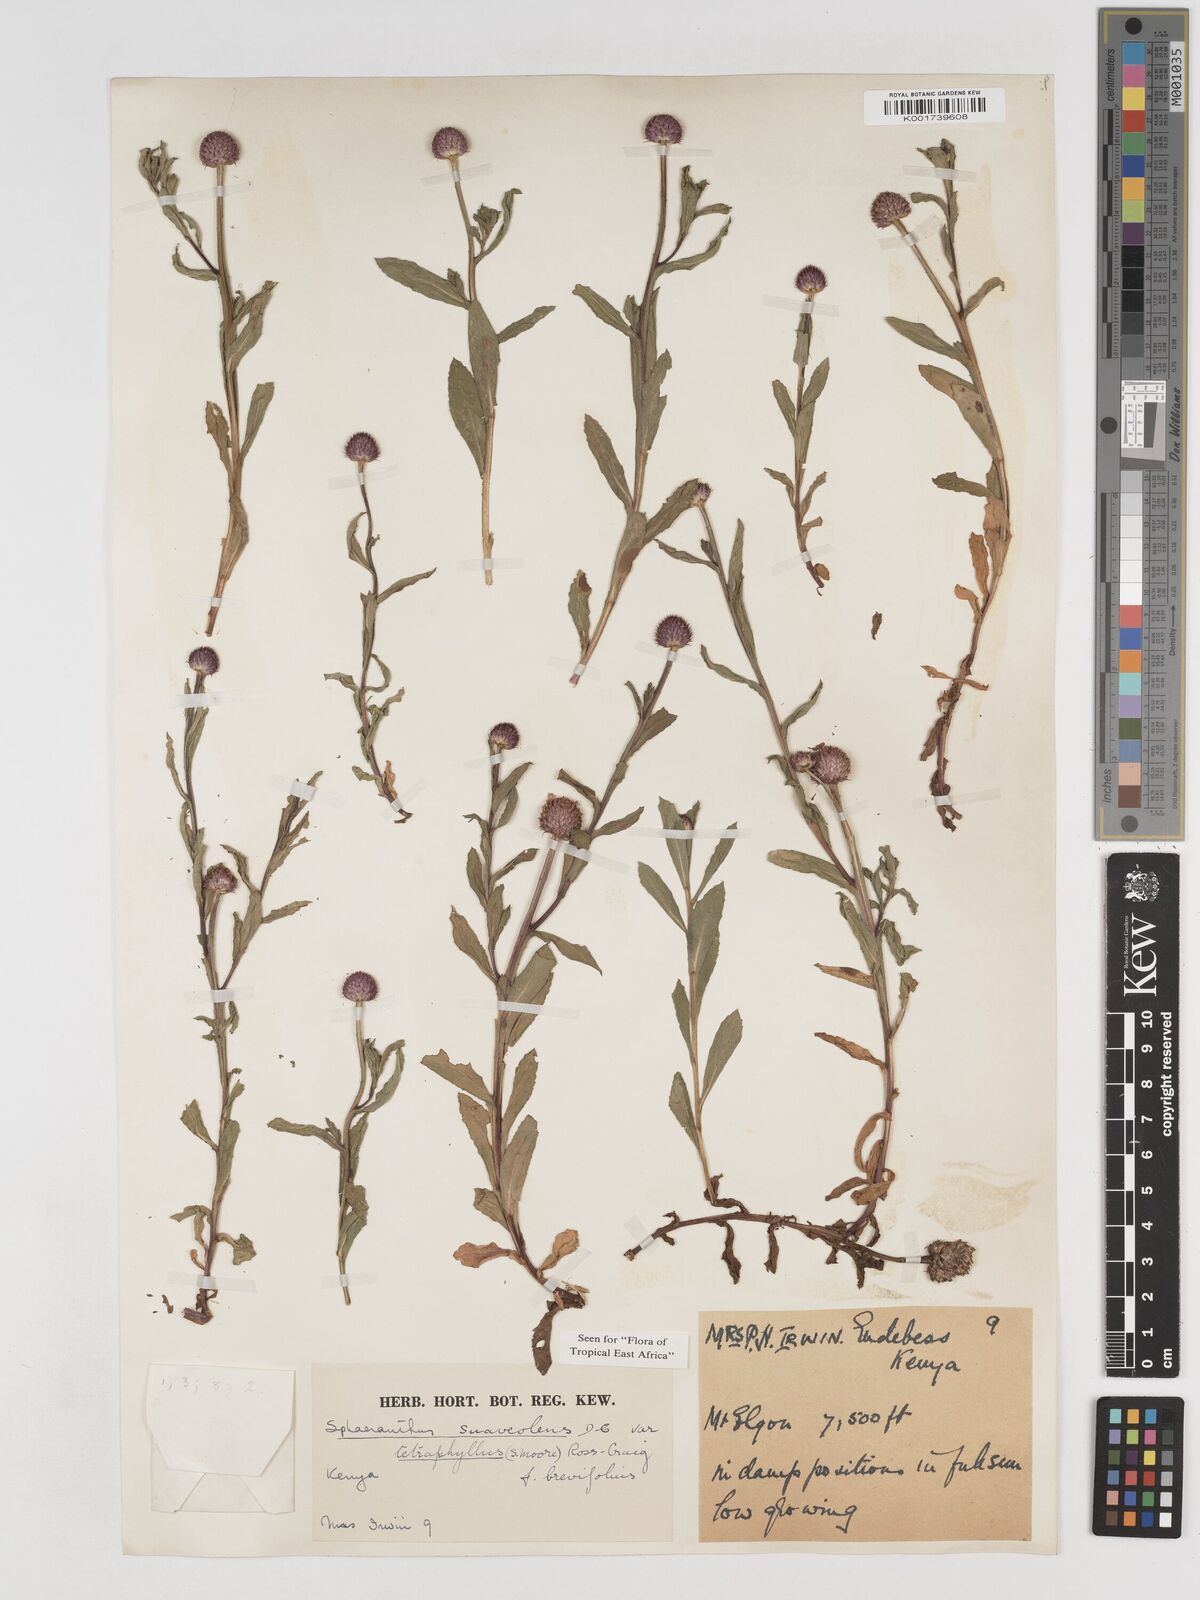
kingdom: Plantae
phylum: Tracheophyta
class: Magnoliopsida
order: Asterales
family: Asteraceae
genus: Sphaeranthus
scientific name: Sphaeranthus suaveolens
